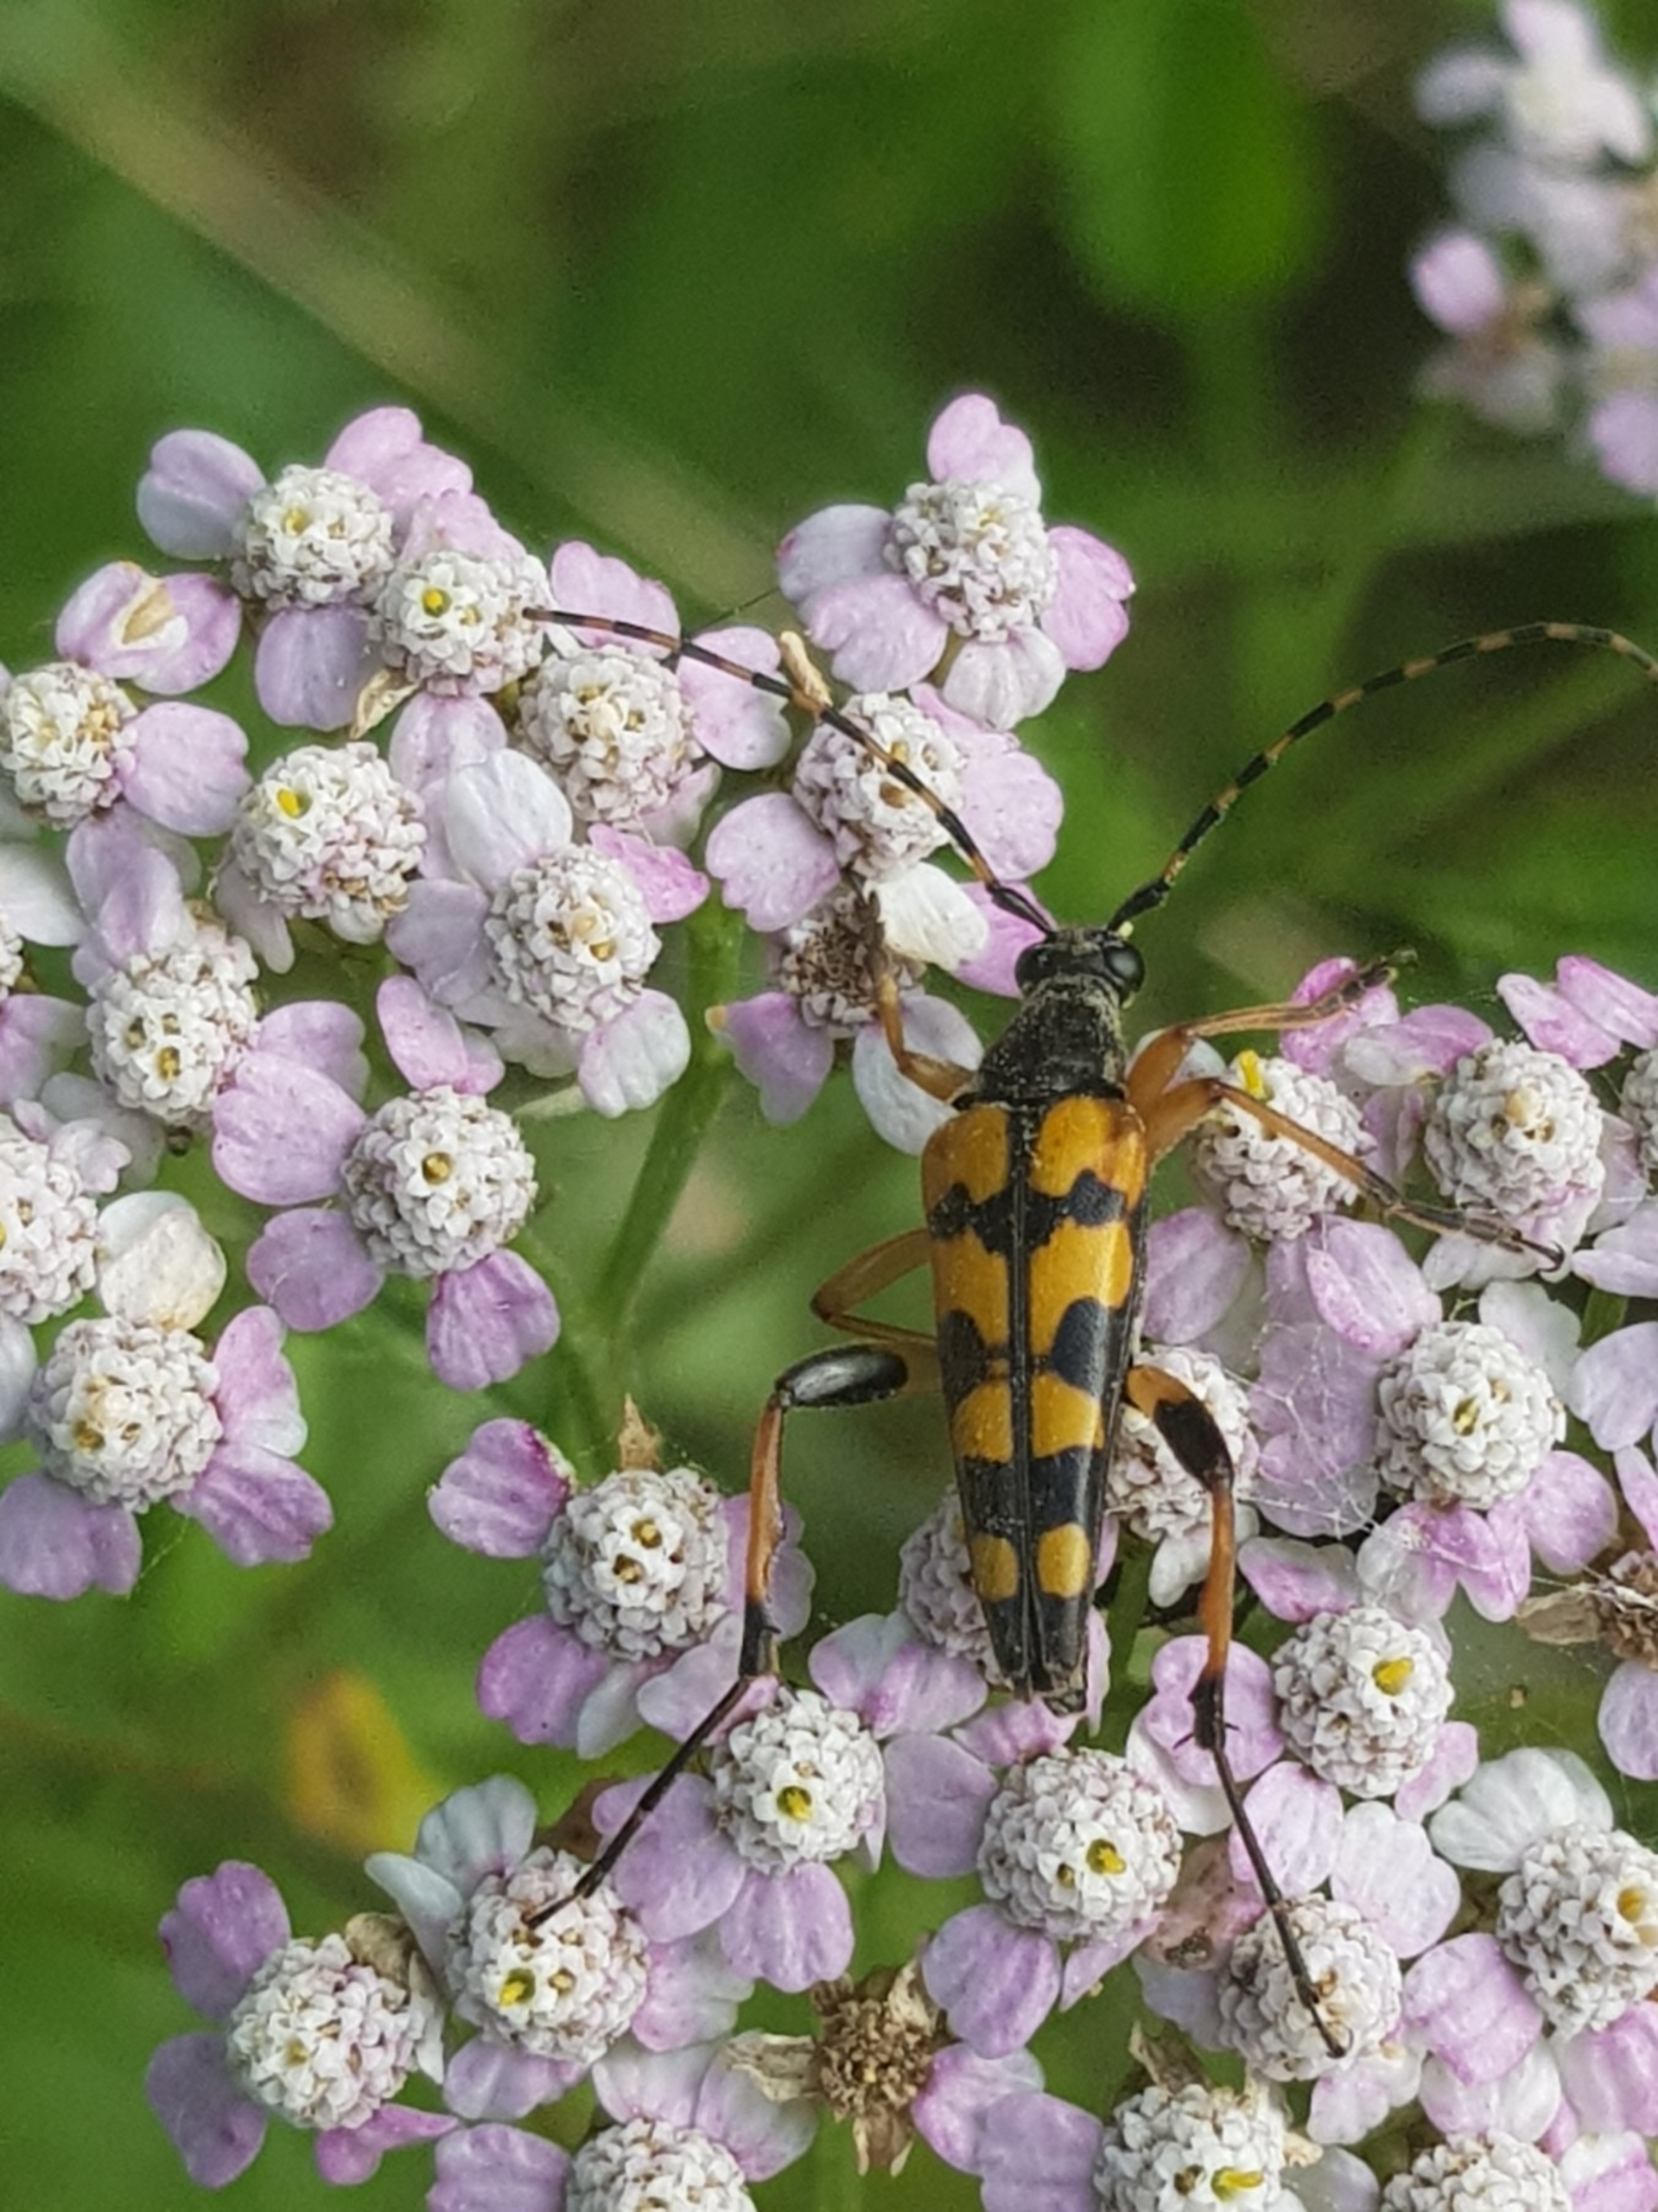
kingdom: Animalia
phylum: Arthropoda
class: Insecta
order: Coleoptera
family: Cerambycidae
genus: Rutpela
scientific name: Rutpela maculata
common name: Sydlig blomsterbuk
